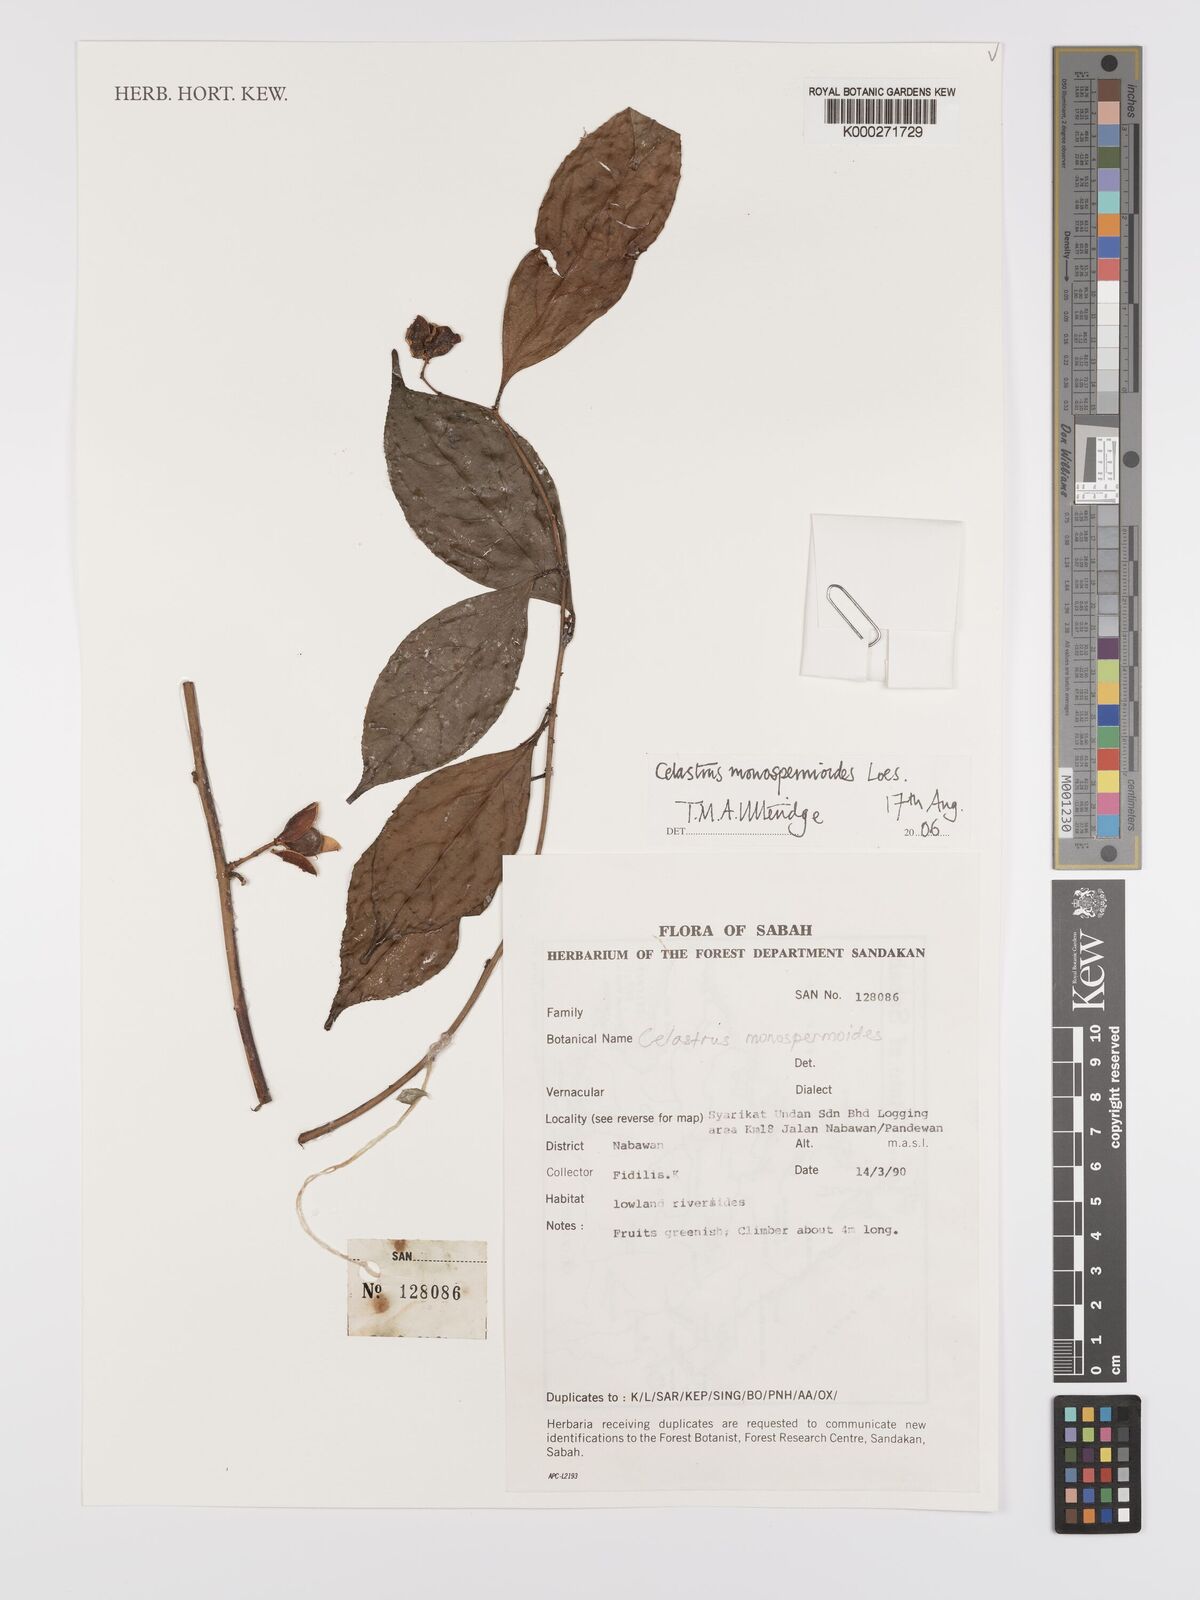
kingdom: Plantae
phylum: Tracheophyta
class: Magnoliopsida
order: Celastrales
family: Celastraceae
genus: Celastrus
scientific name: Celastrus monospermoides
